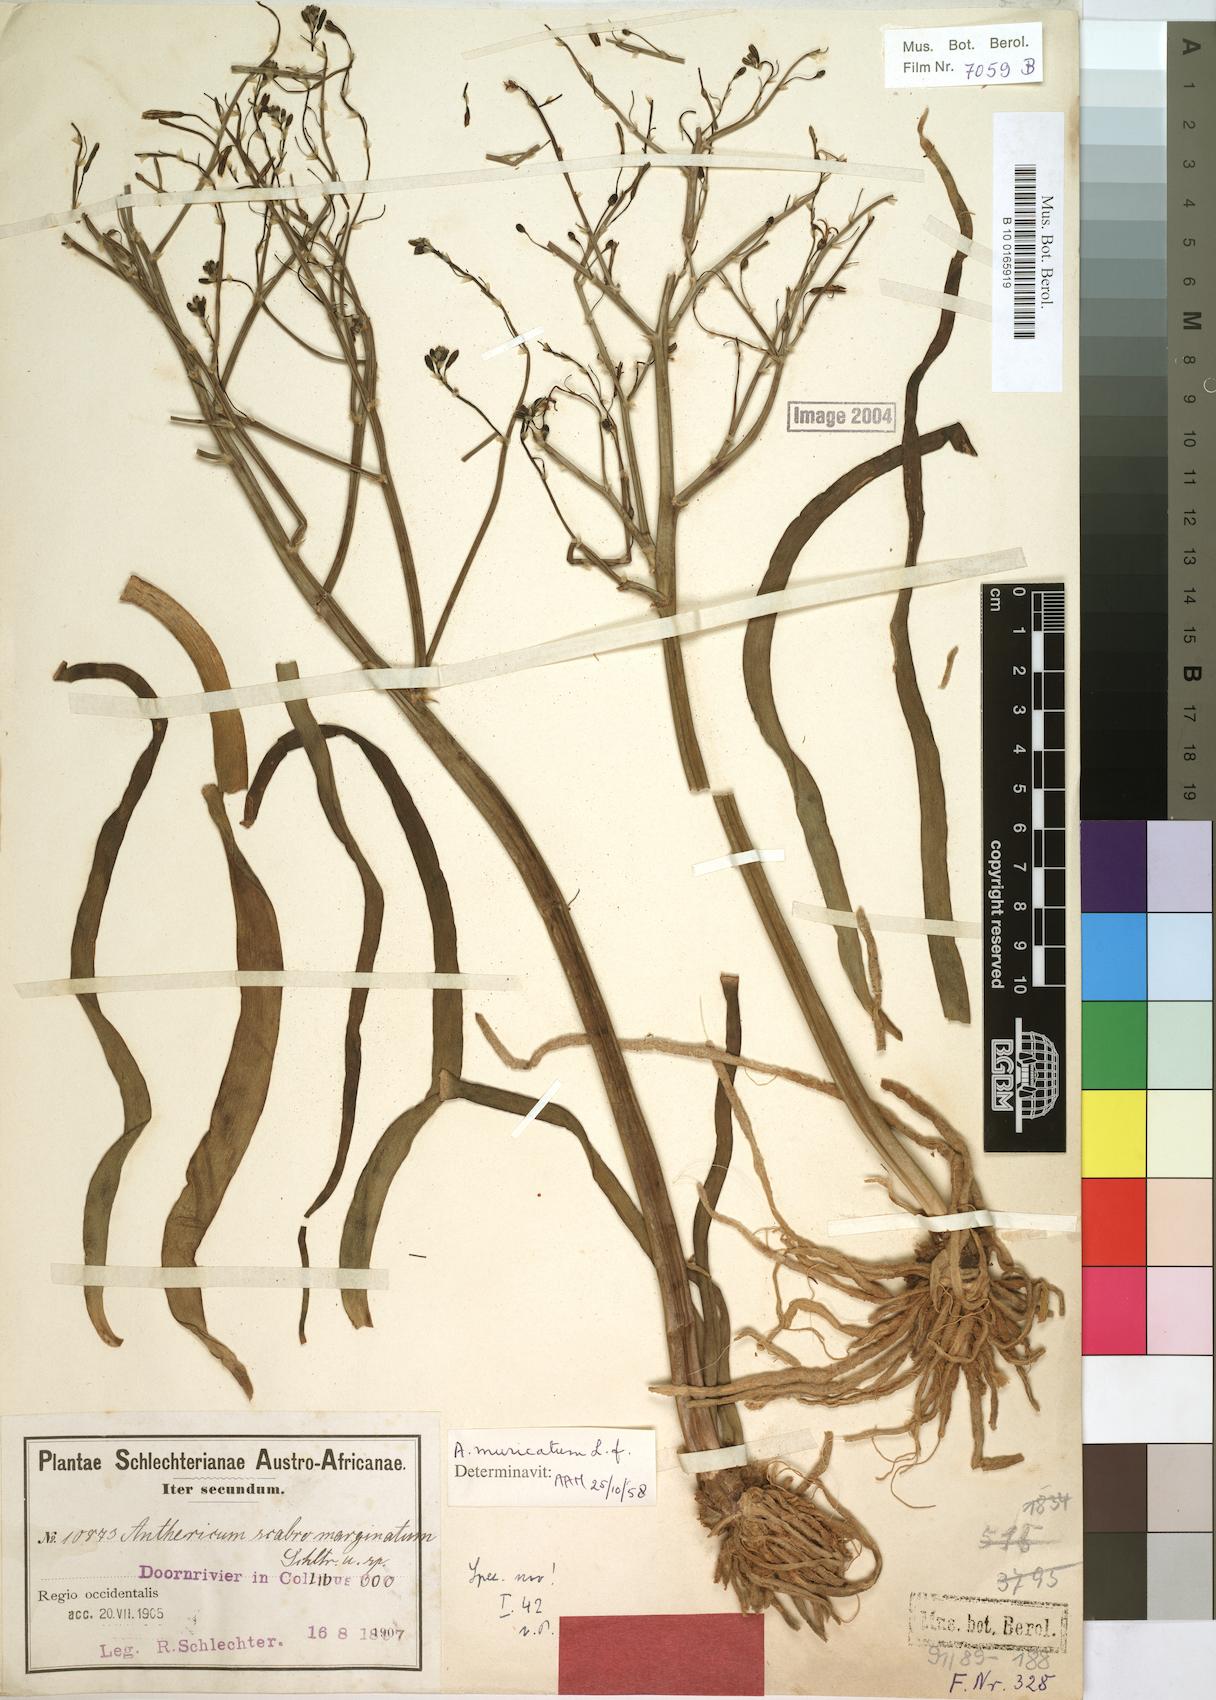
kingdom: Plantae
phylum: Tracheophyta
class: Liliopsida
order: Asparagales
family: Asphodelaceae
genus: Trachyandra
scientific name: Trachyandra muricata
